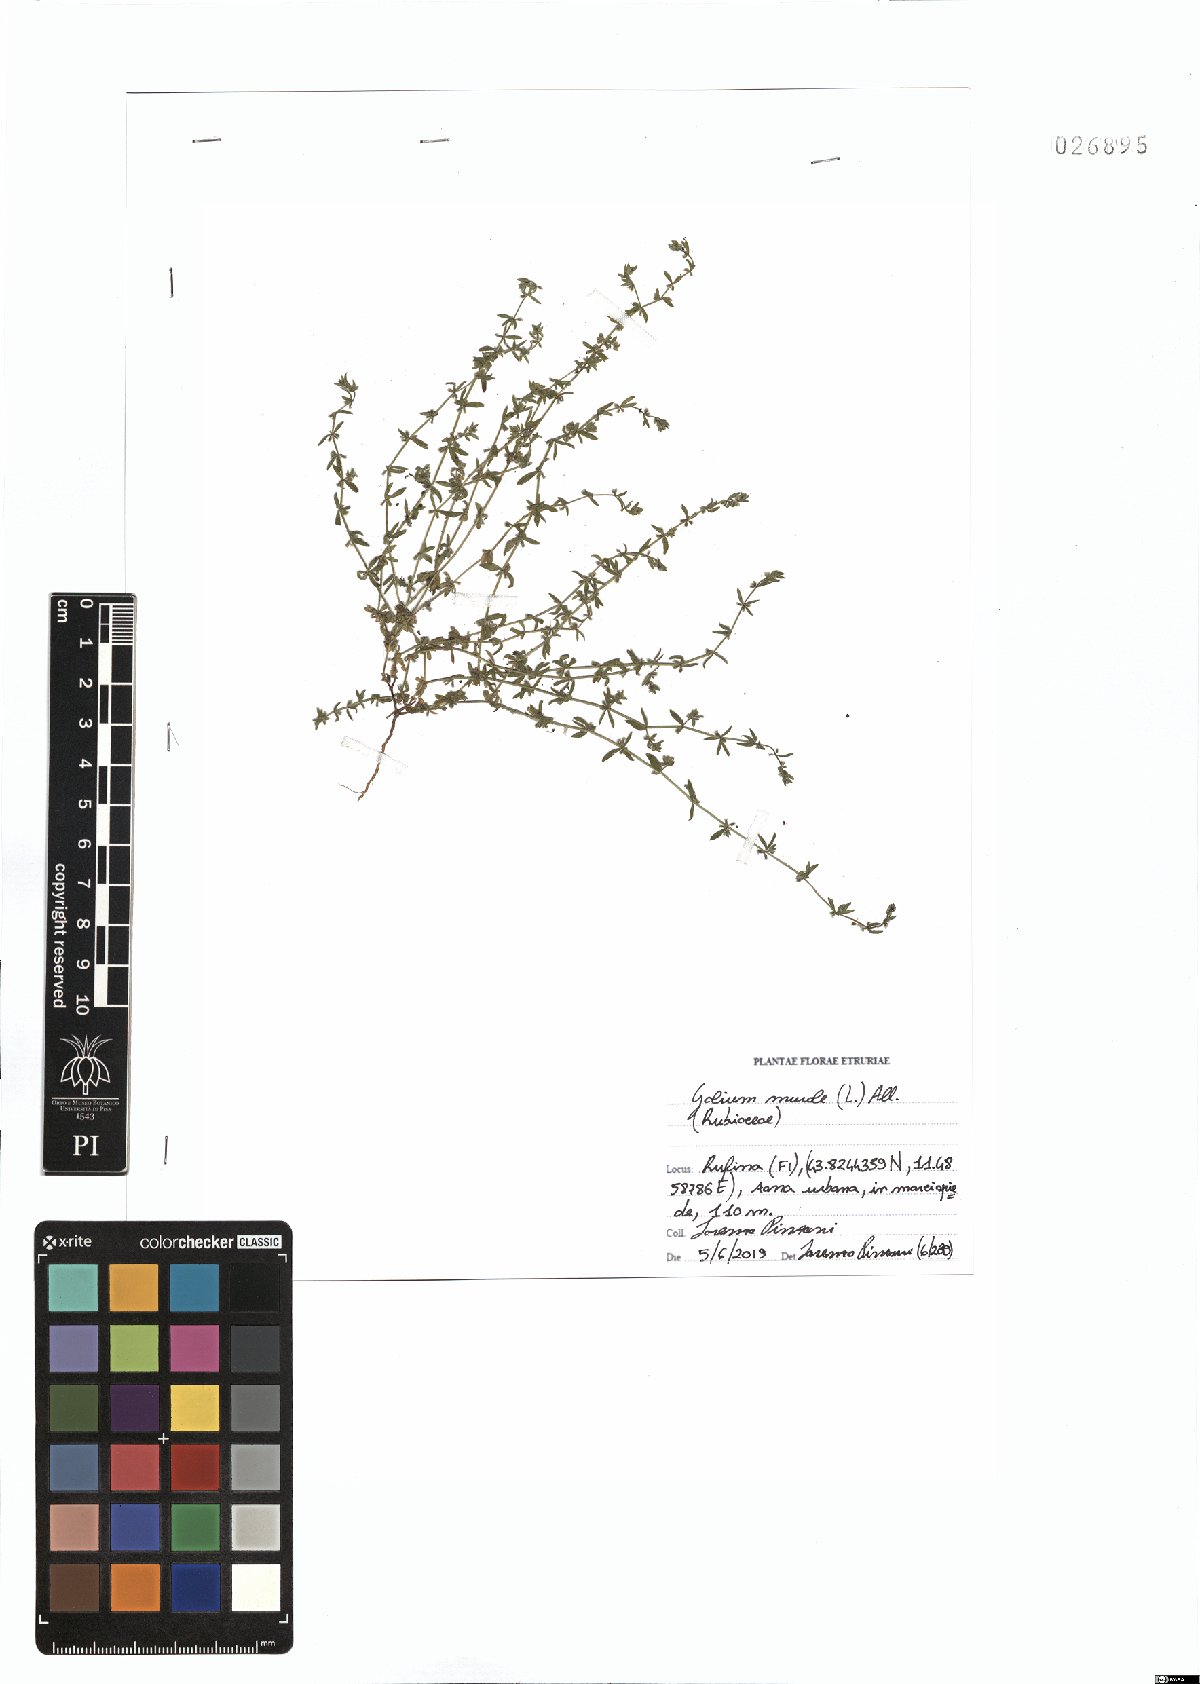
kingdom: Plantae
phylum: Tracheophyta
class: Magnoliopsida
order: Gentianales
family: Rubiaceae
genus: Galium
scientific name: Galium murale
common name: Yellow wall bedstraw
